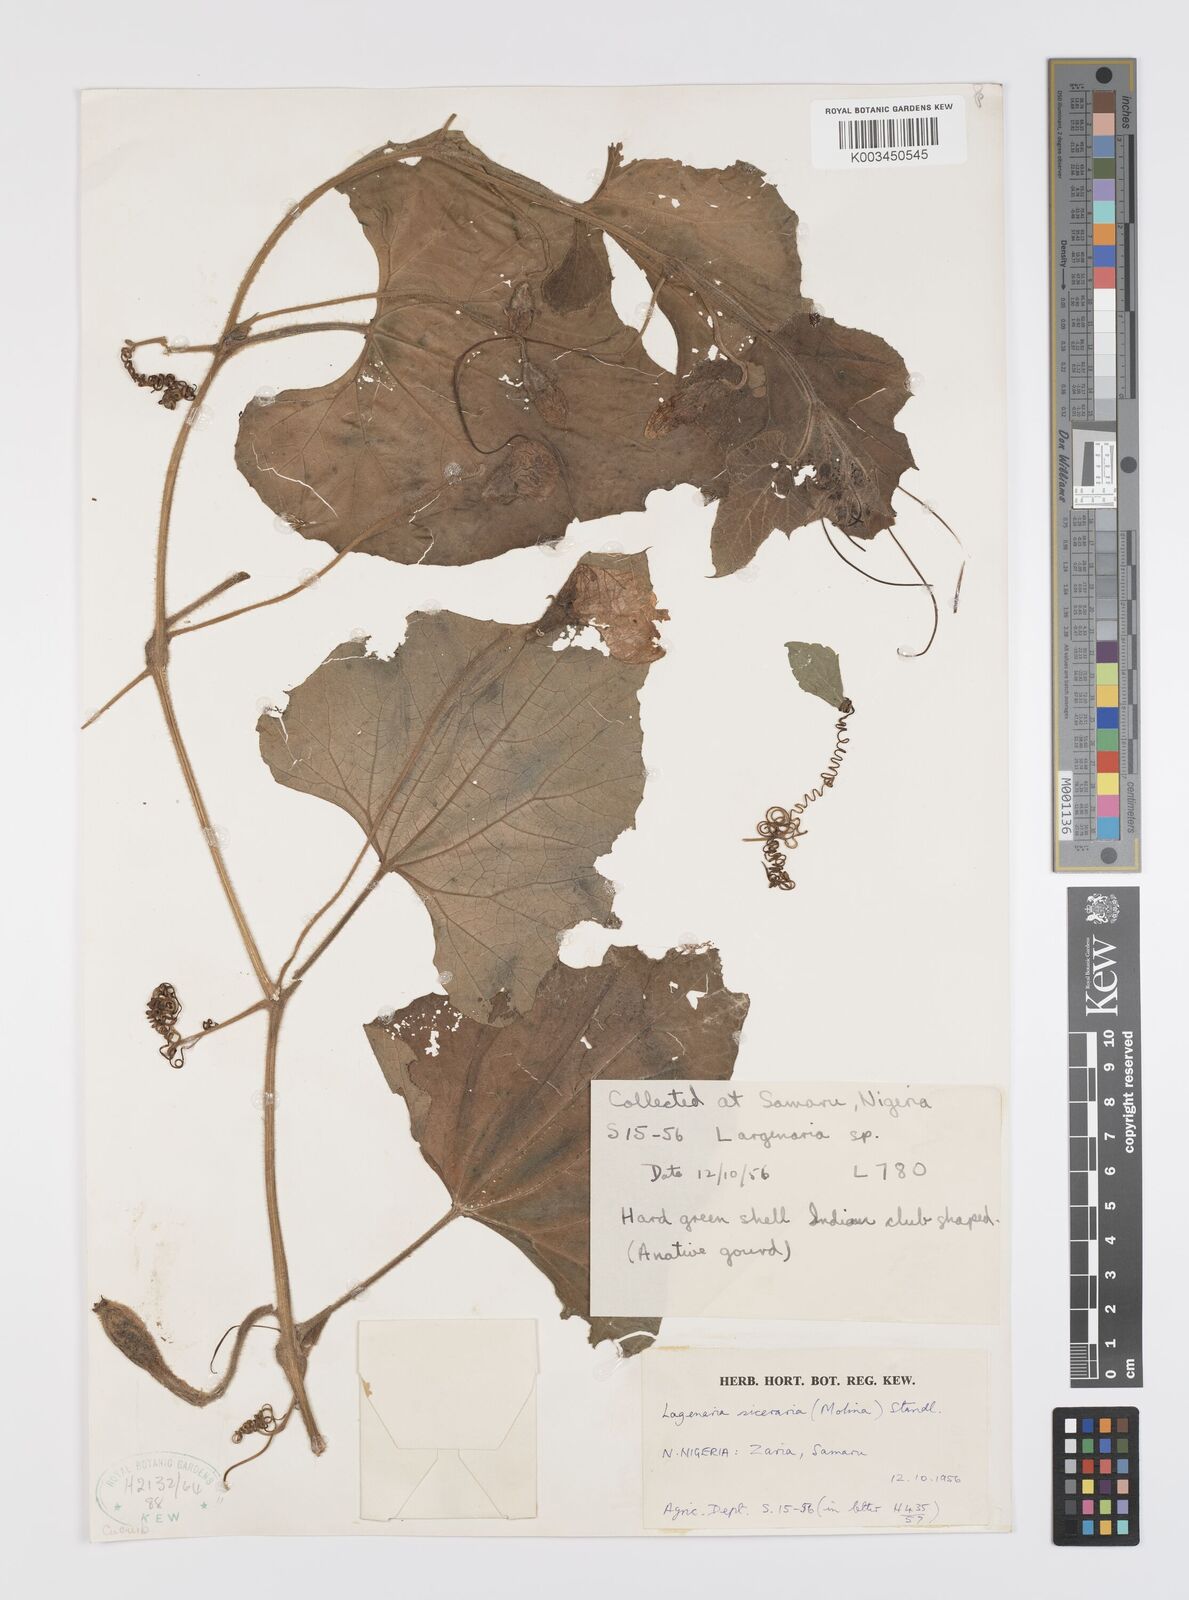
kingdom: Plantae
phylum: Tracheophyta
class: Magnoliopsida
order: Cucurbitales
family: Cucurbitaceae
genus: Lagenaria
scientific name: Lagenaria siceraria
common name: Bottle gourd
